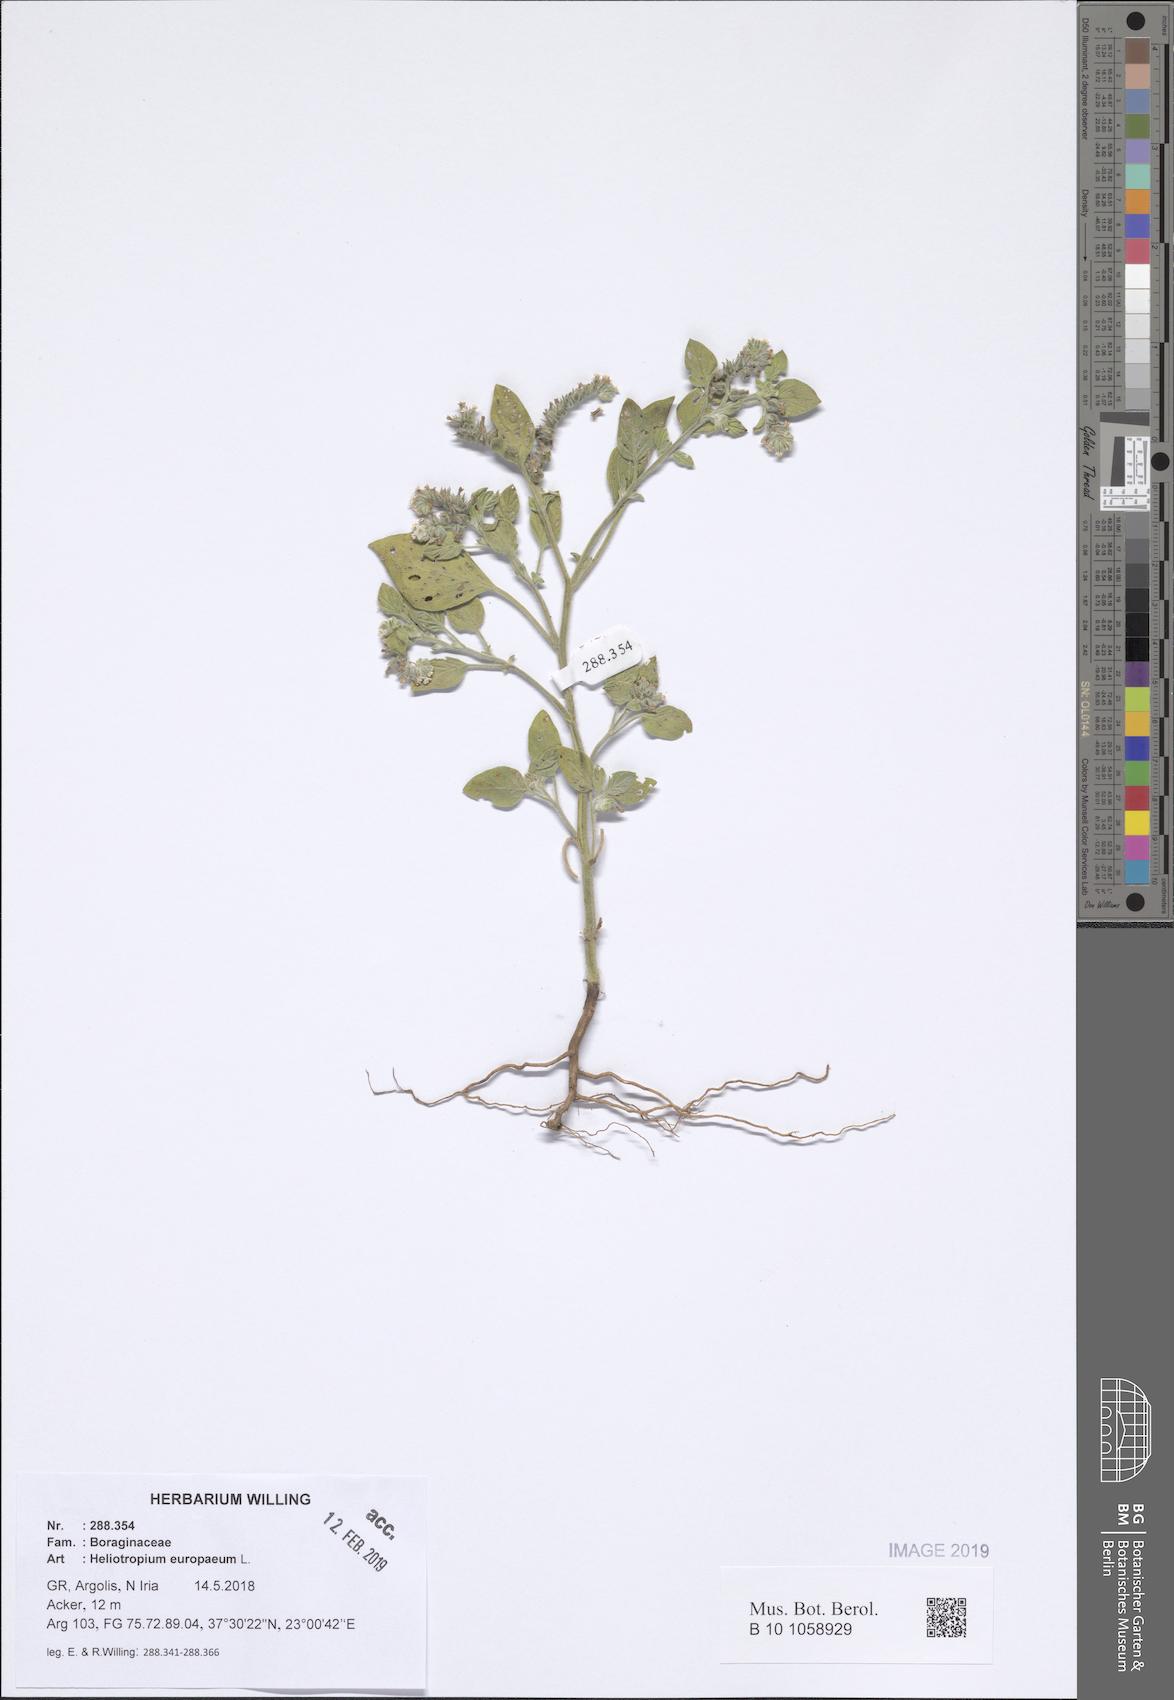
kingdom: Plantae
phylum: Tracheophyta
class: Magnoliopsida
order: Boraginales
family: Heliotropiaceae
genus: Heliotropium
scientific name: Heliotropium europaeum
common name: European heliotrope
